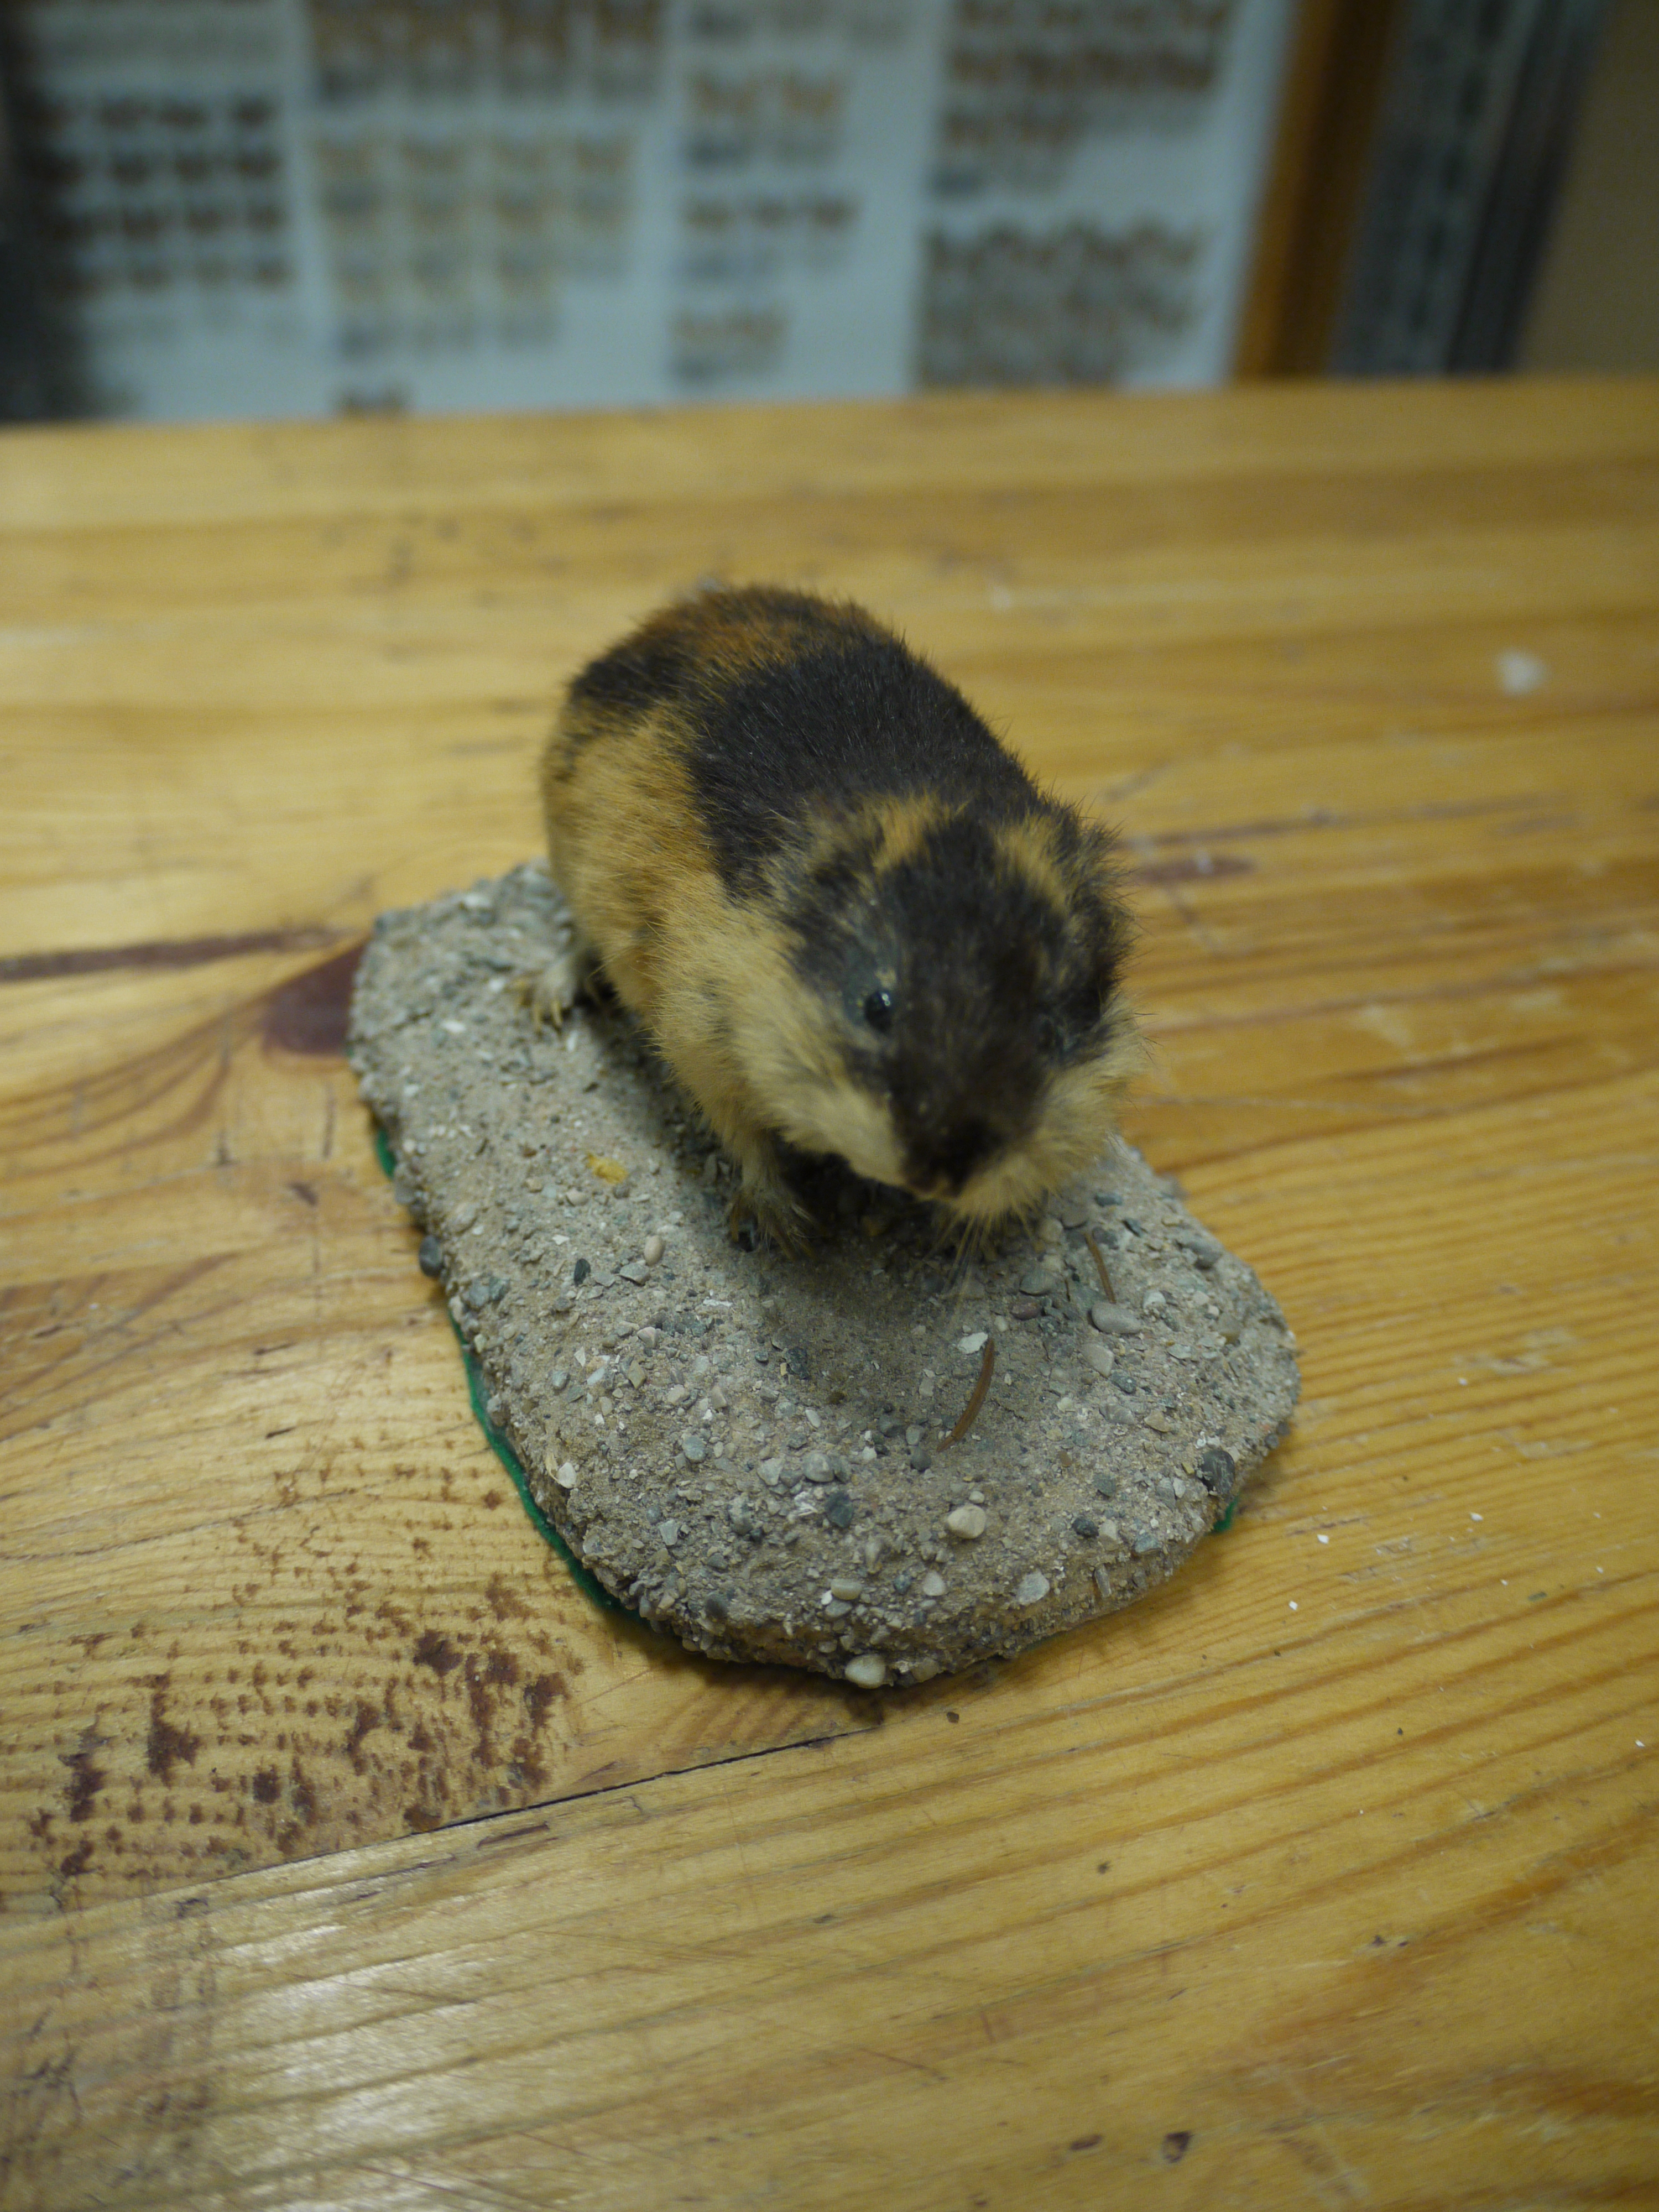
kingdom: Animalia
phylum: Chordata
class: Mammalia
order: Rodentia
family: Cricetidae
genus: Lemmus
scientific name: Lemmus lemmus
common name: Norway lemming
